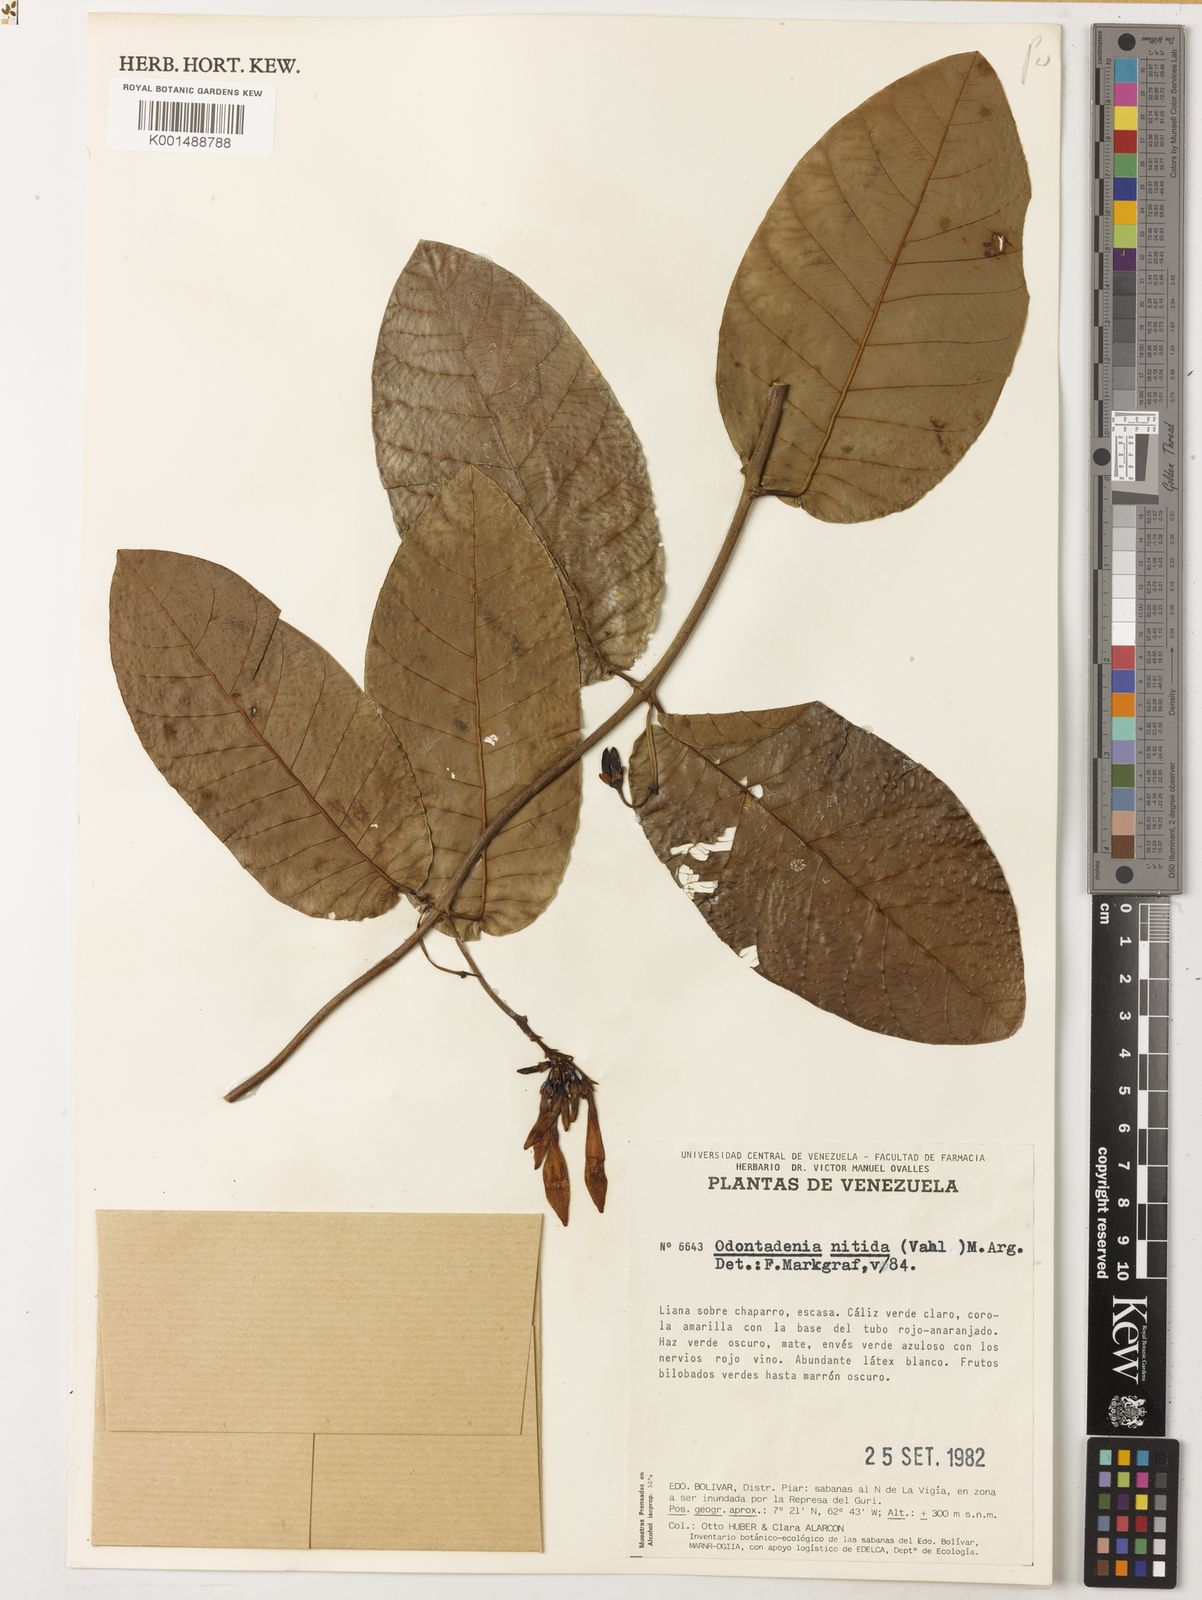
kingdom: Plantae
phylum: Tracheophyta
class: Magnoliopsida
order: Gentianales
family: Apocynaceae
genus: Odontadenia
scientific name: Odontadenia nitida
